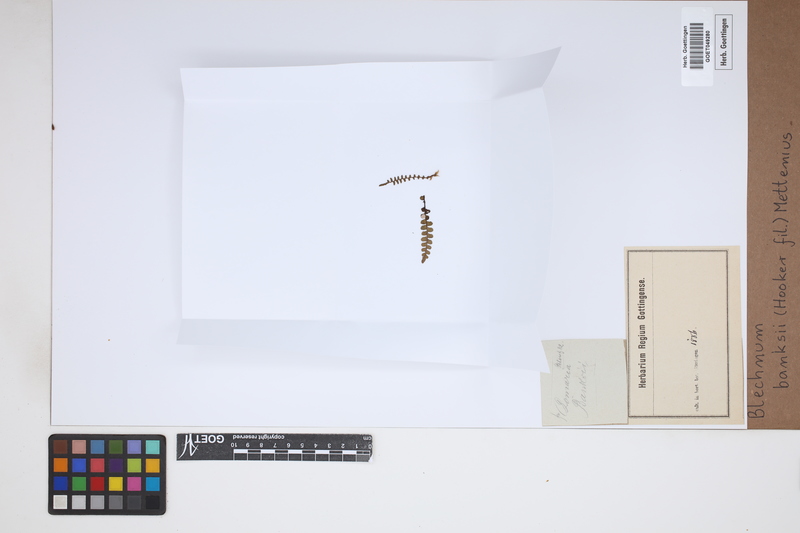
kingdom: Plantae
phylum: Tracheophyta
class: Polypodiopsida
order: Polypodiales
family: Blechnaceae
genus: Austroblechnum
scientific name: Austroblechnum banksii
